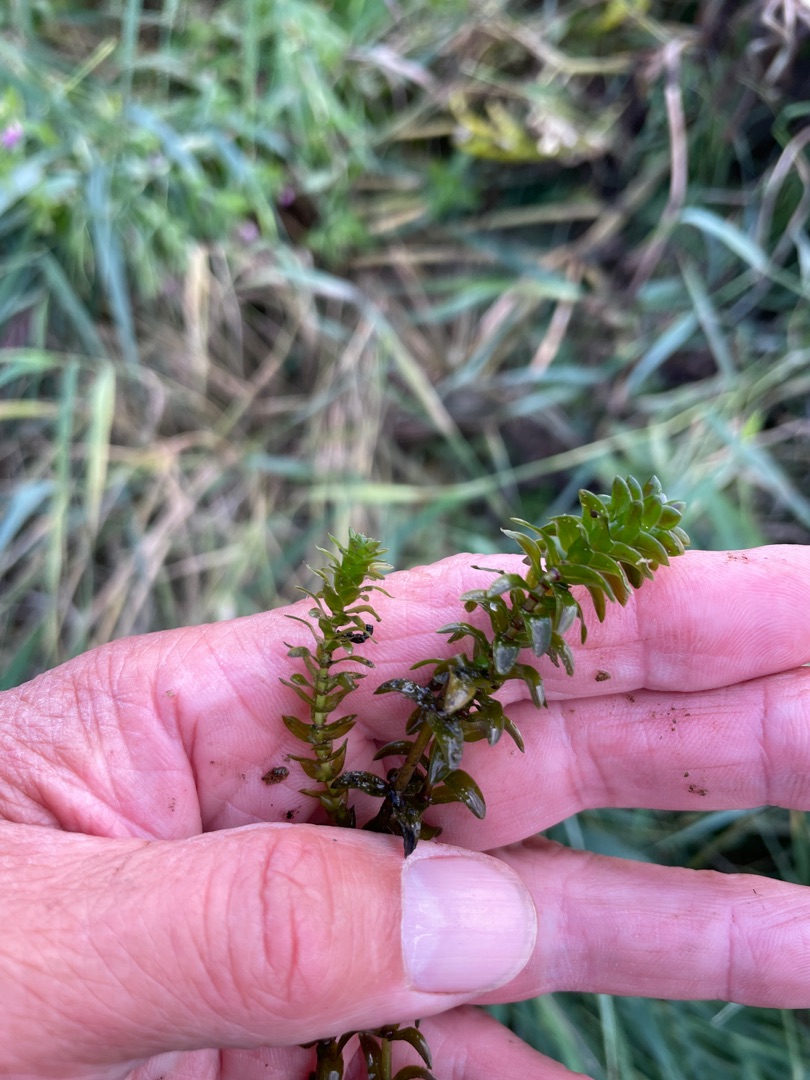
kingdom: Plantae
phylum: Tracheophyta
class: Liliopsida
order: Alismatales
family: Hydrocharitaceae
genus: Elodea
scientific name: Elodea canadensis
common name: Vandpest
